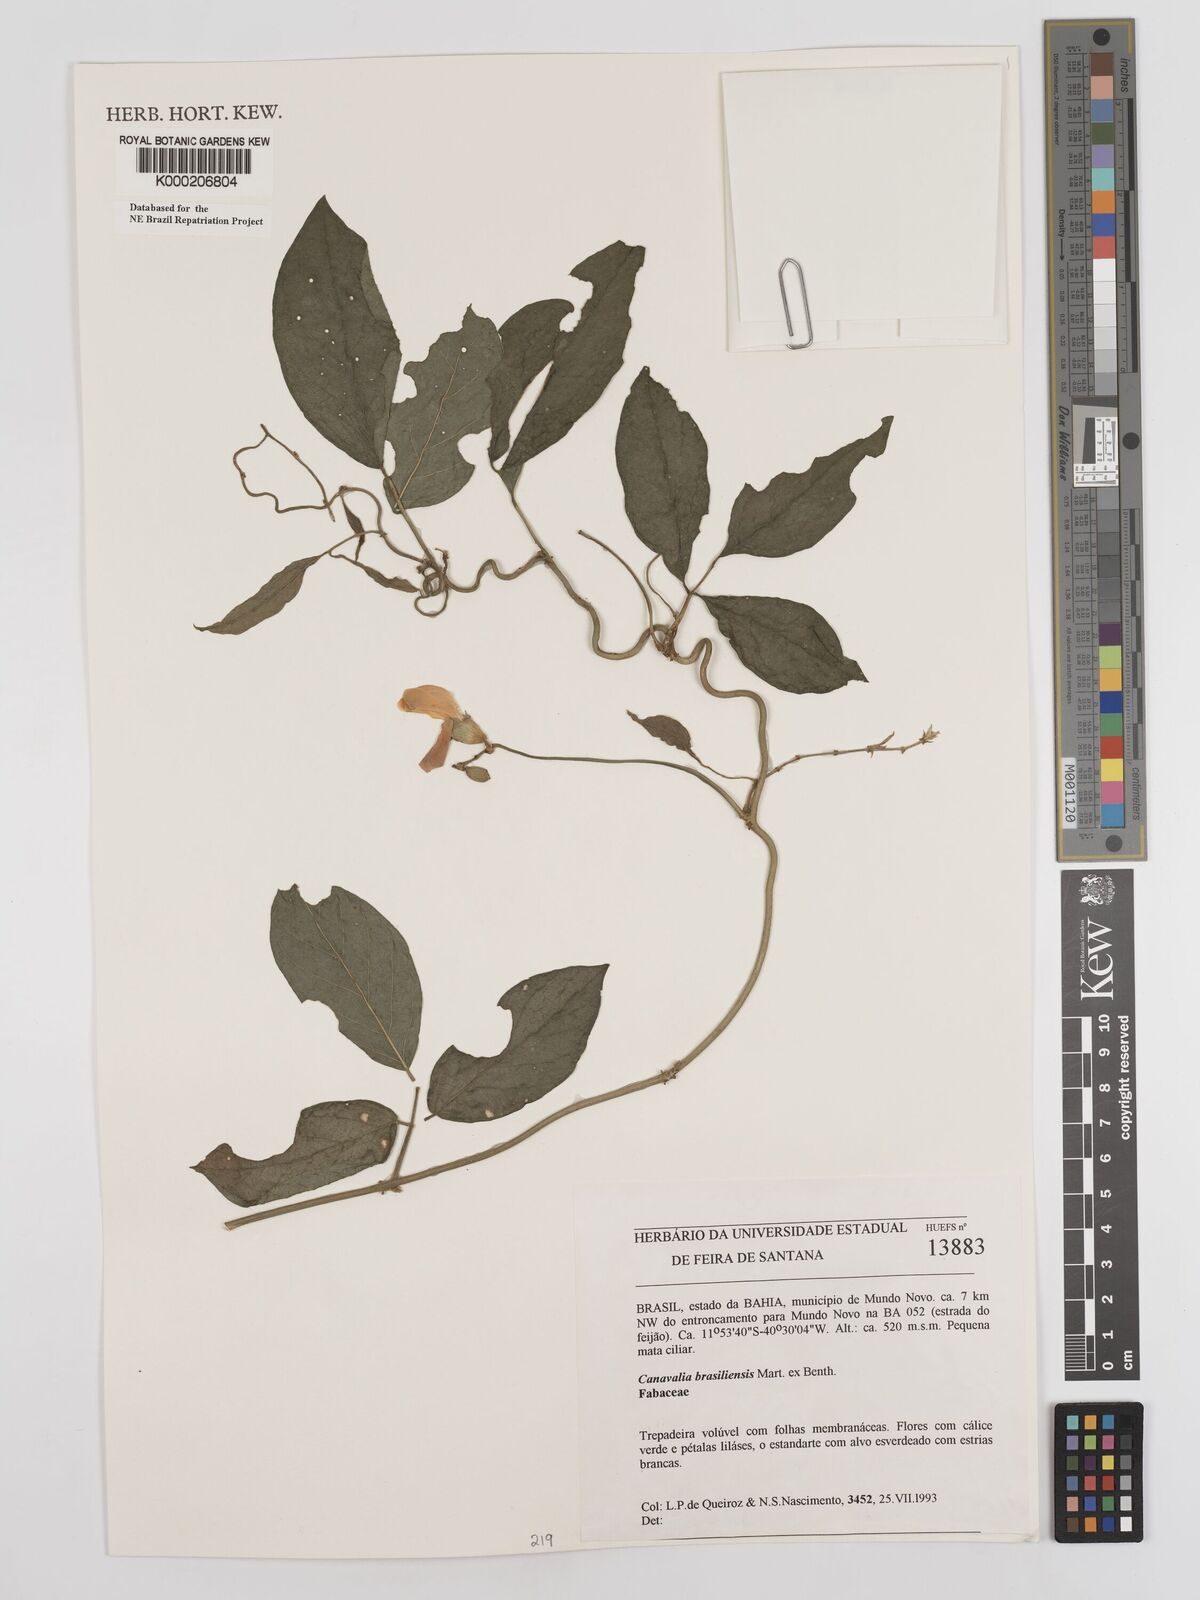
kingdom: Plantae
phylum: Tracheophyta
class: Magnoliopsida
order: Fabales
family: Fabaceae
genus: Canavalia
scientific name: Canavalia brasiliensis
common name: Barbicou-bean
